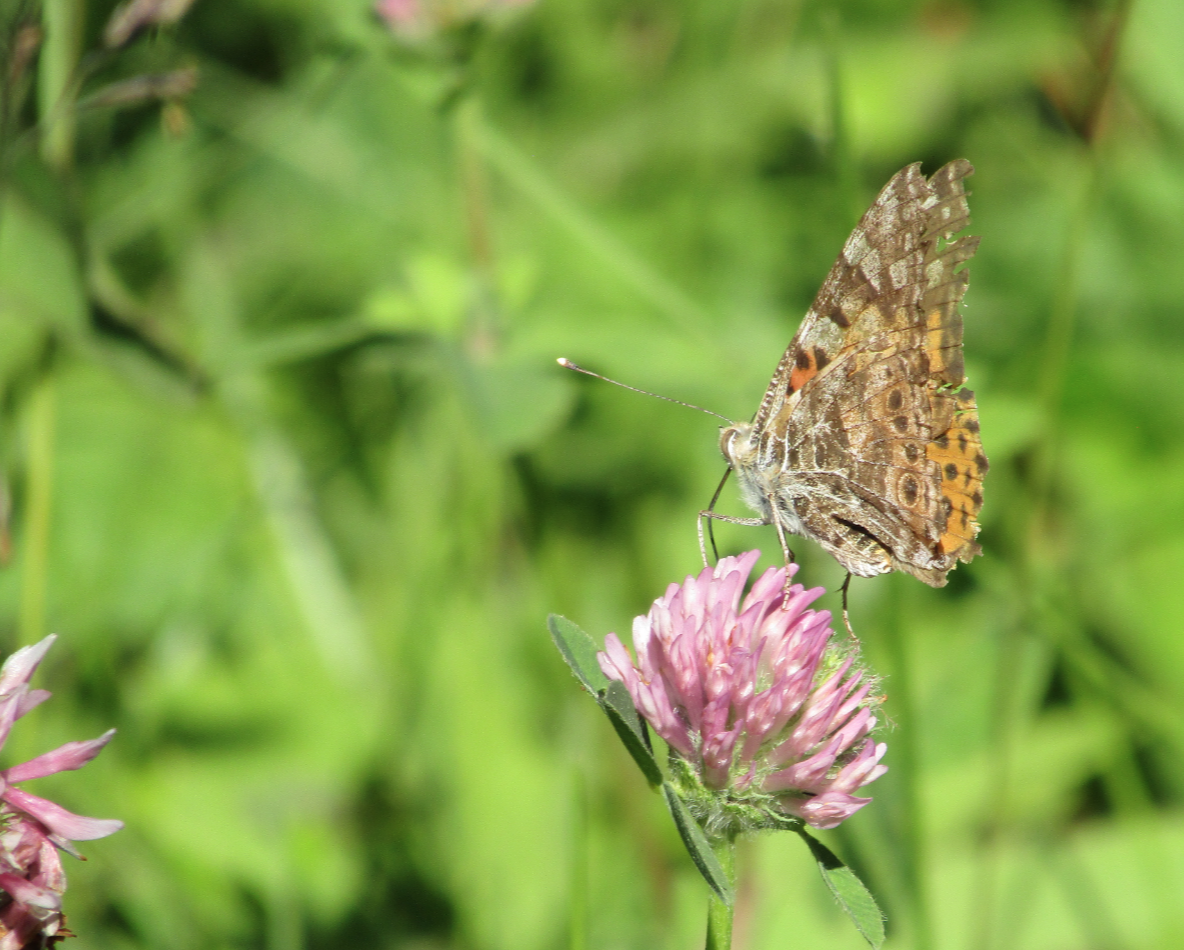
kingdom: Animalia
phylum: Arthropoda
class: Insecta
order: Lepidoptera
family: Nymphalidae
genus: Vanessa
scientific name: Vanessa cardui
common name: Painted Lady
